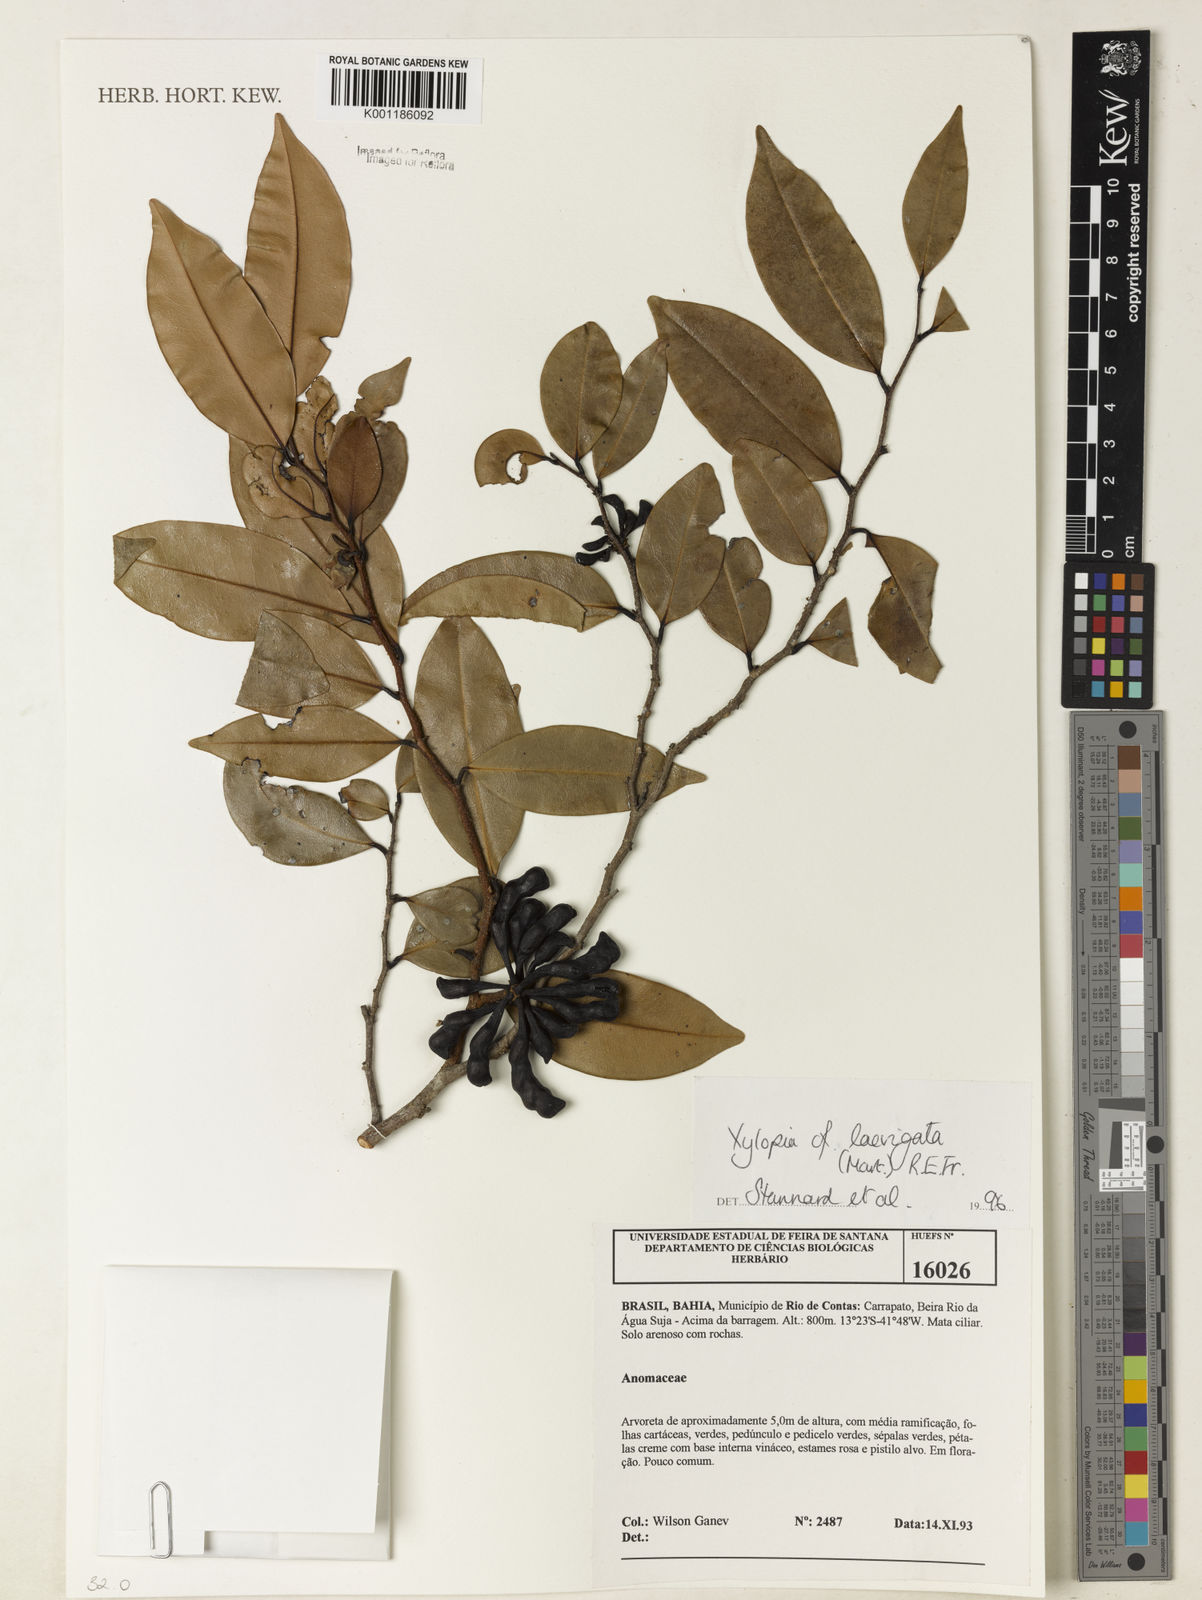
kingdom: Plantae
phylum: Tracheophyta
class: Magnoliopsida
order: Magnoliales
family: Annonaceae
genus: Xylopia
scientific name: Xylopia laevigata
